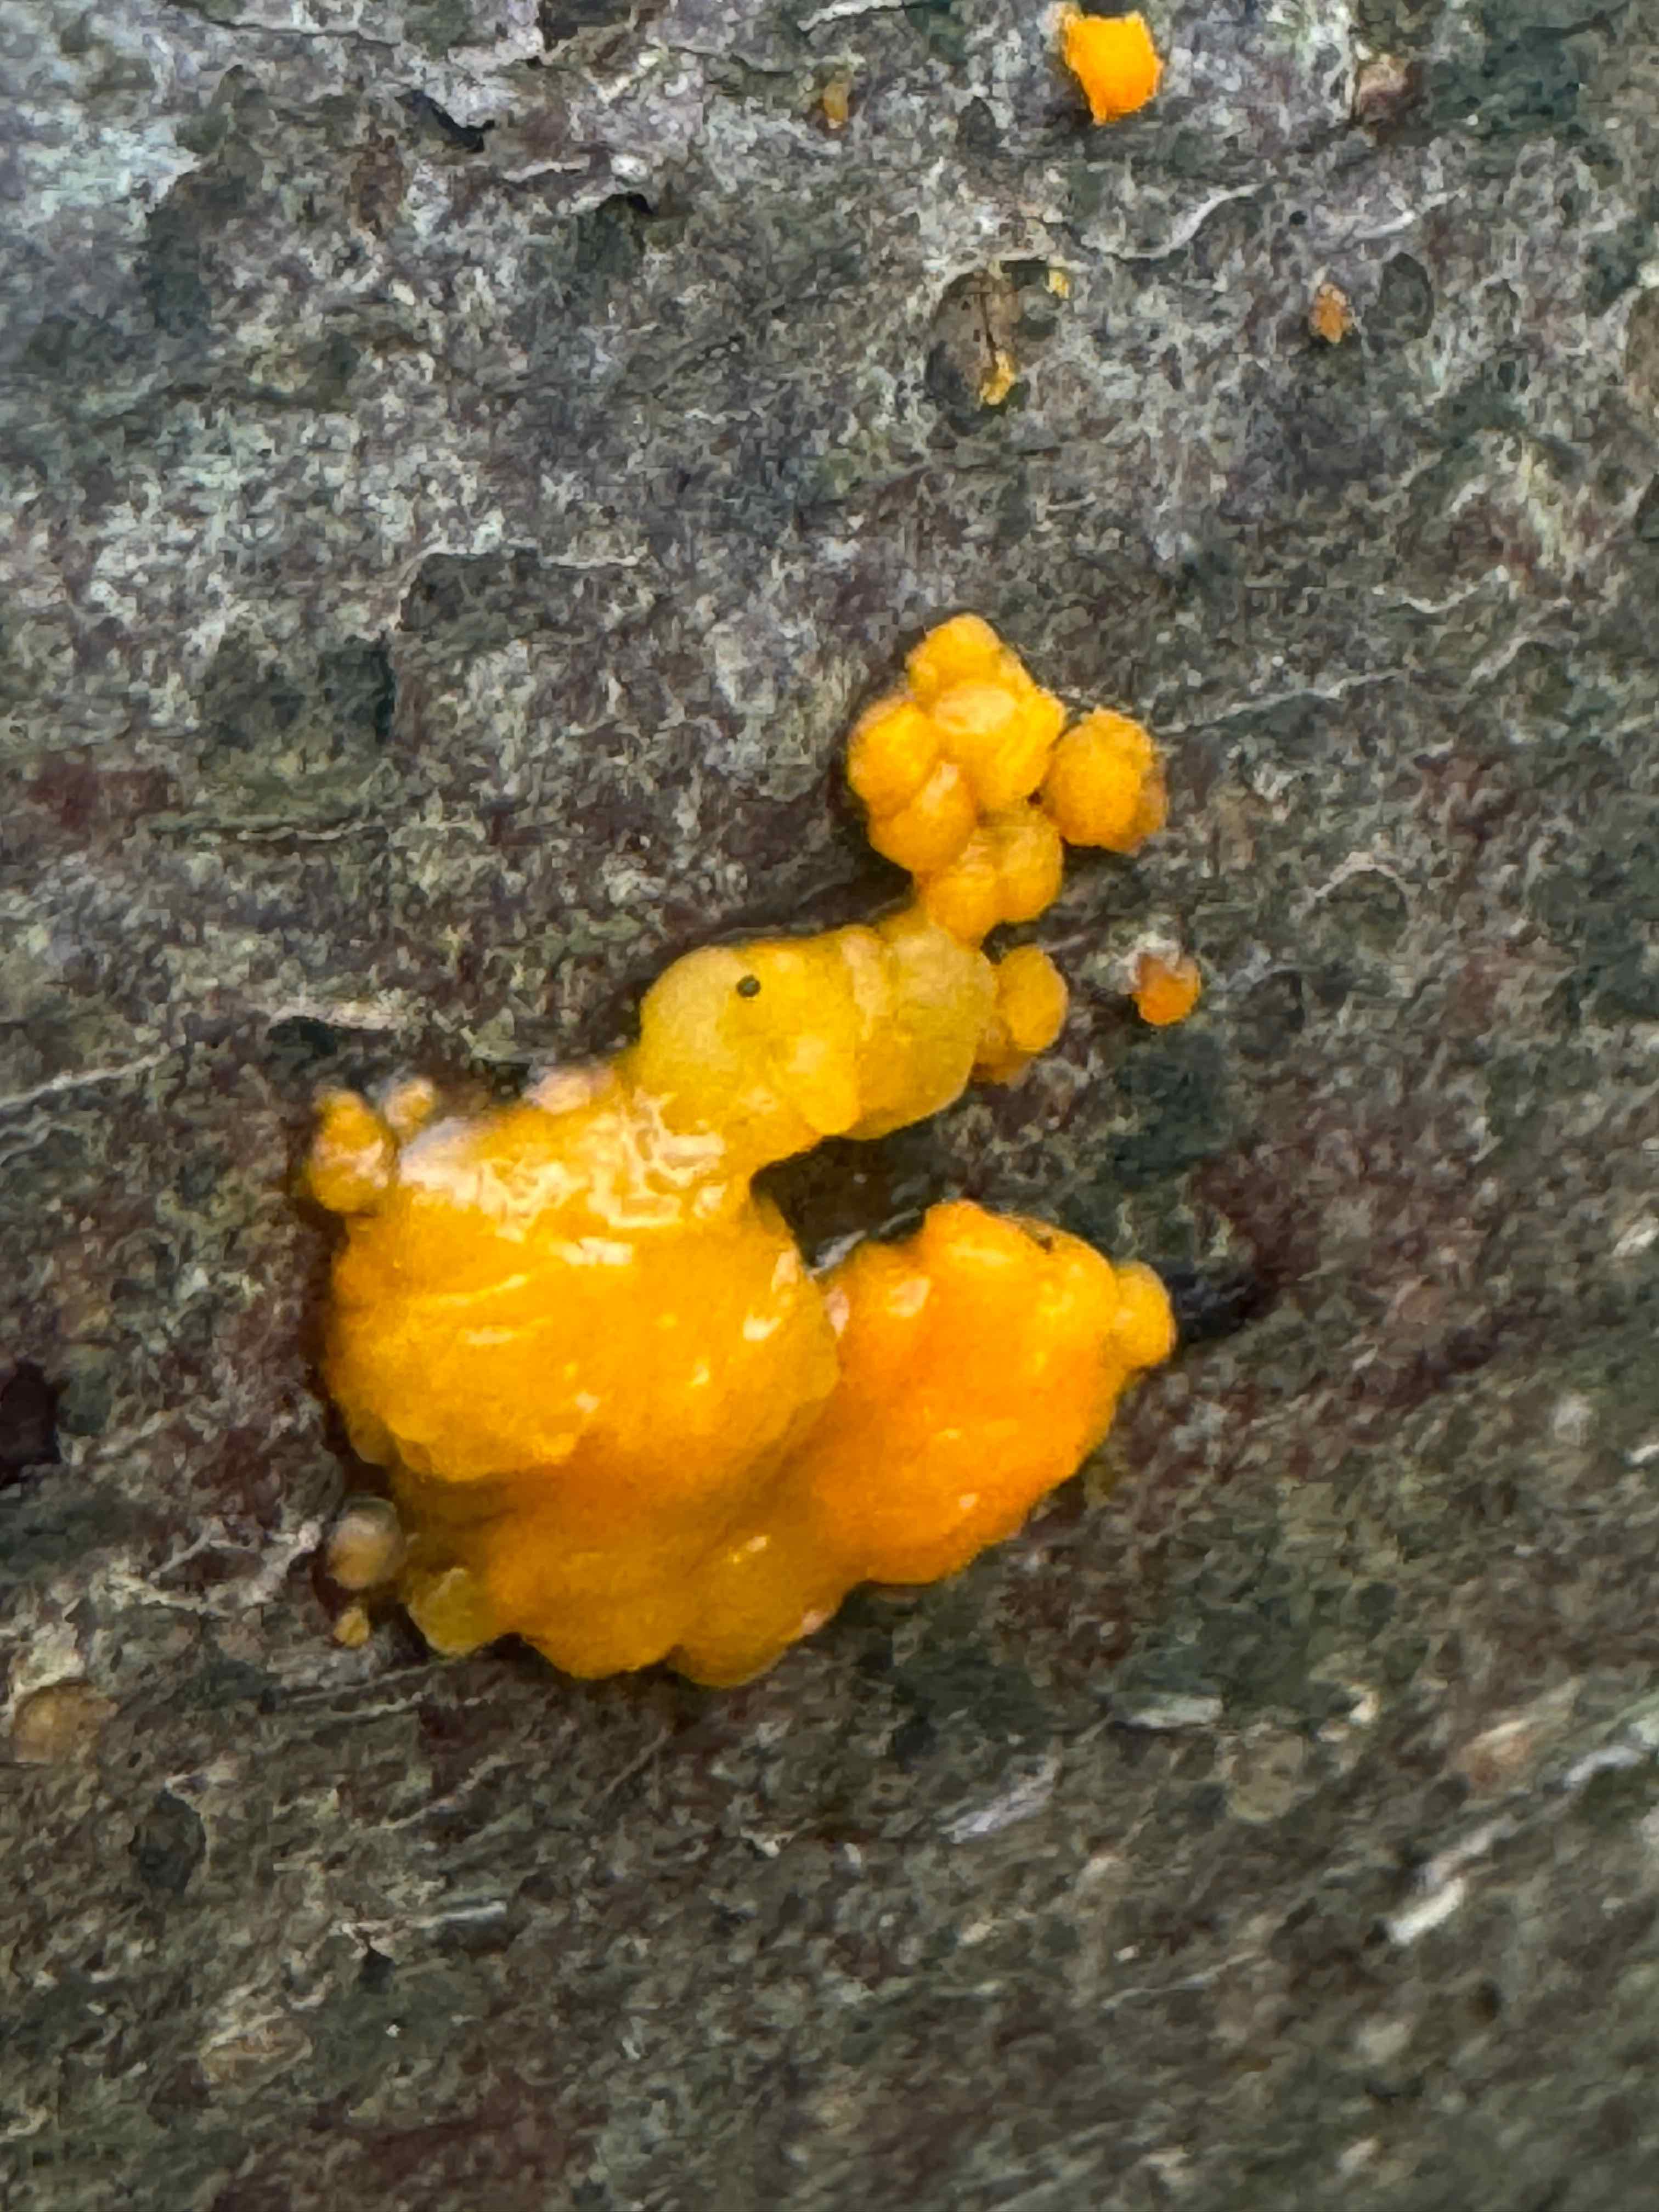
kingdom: Fungi
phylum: Basidiomycota
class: Dacrymycetes
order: Dacrymycetales
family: Dacrymycetaceae
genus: Dacrymyces
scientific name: Dacrymyces stillatus
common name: almindelig tåresvamp
